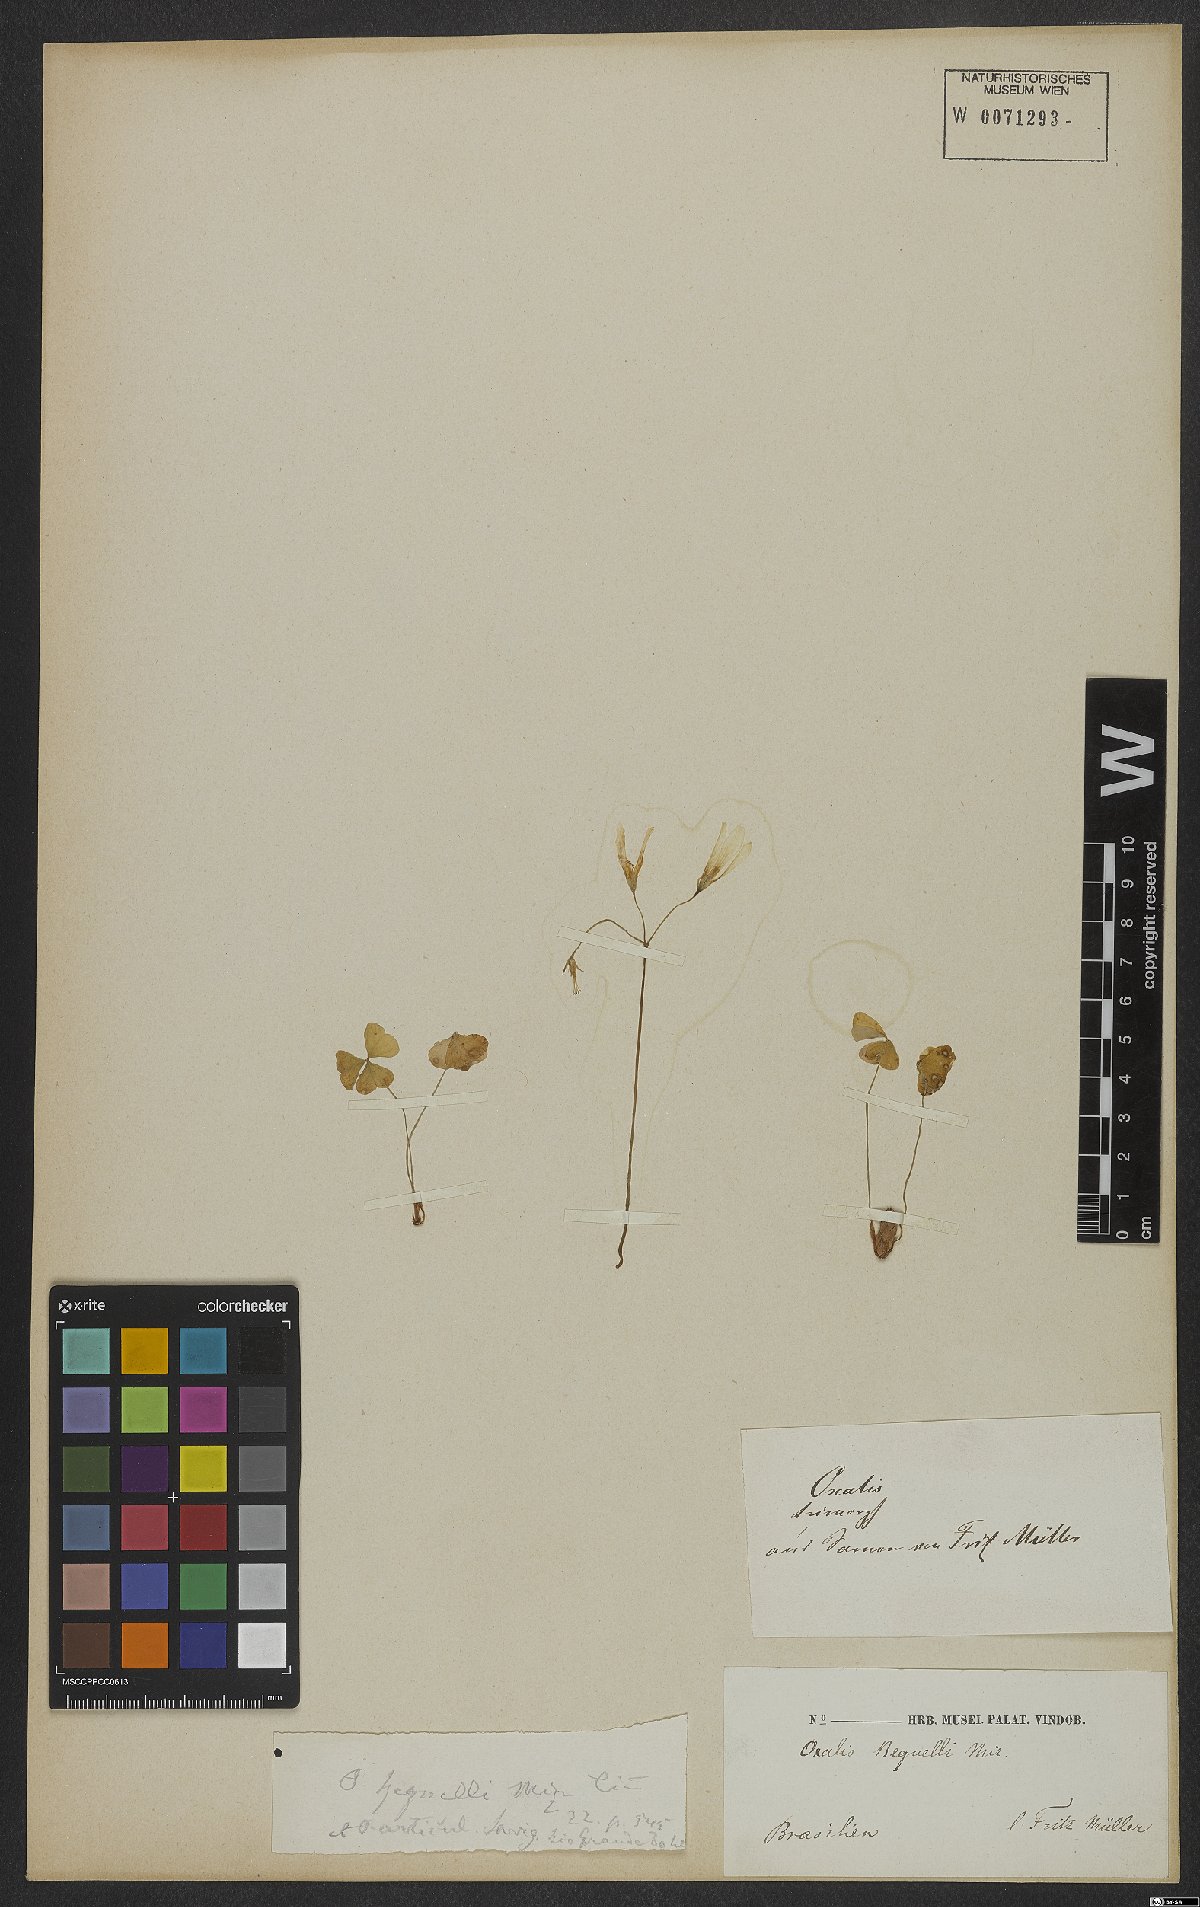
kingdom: Plantae
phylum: Tracheophyta
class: Magnoliopsida
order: Oxalidales
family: Oxalidaceae
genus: Oxalis
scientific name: Oxalis triangularis
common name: Wood sorrel
